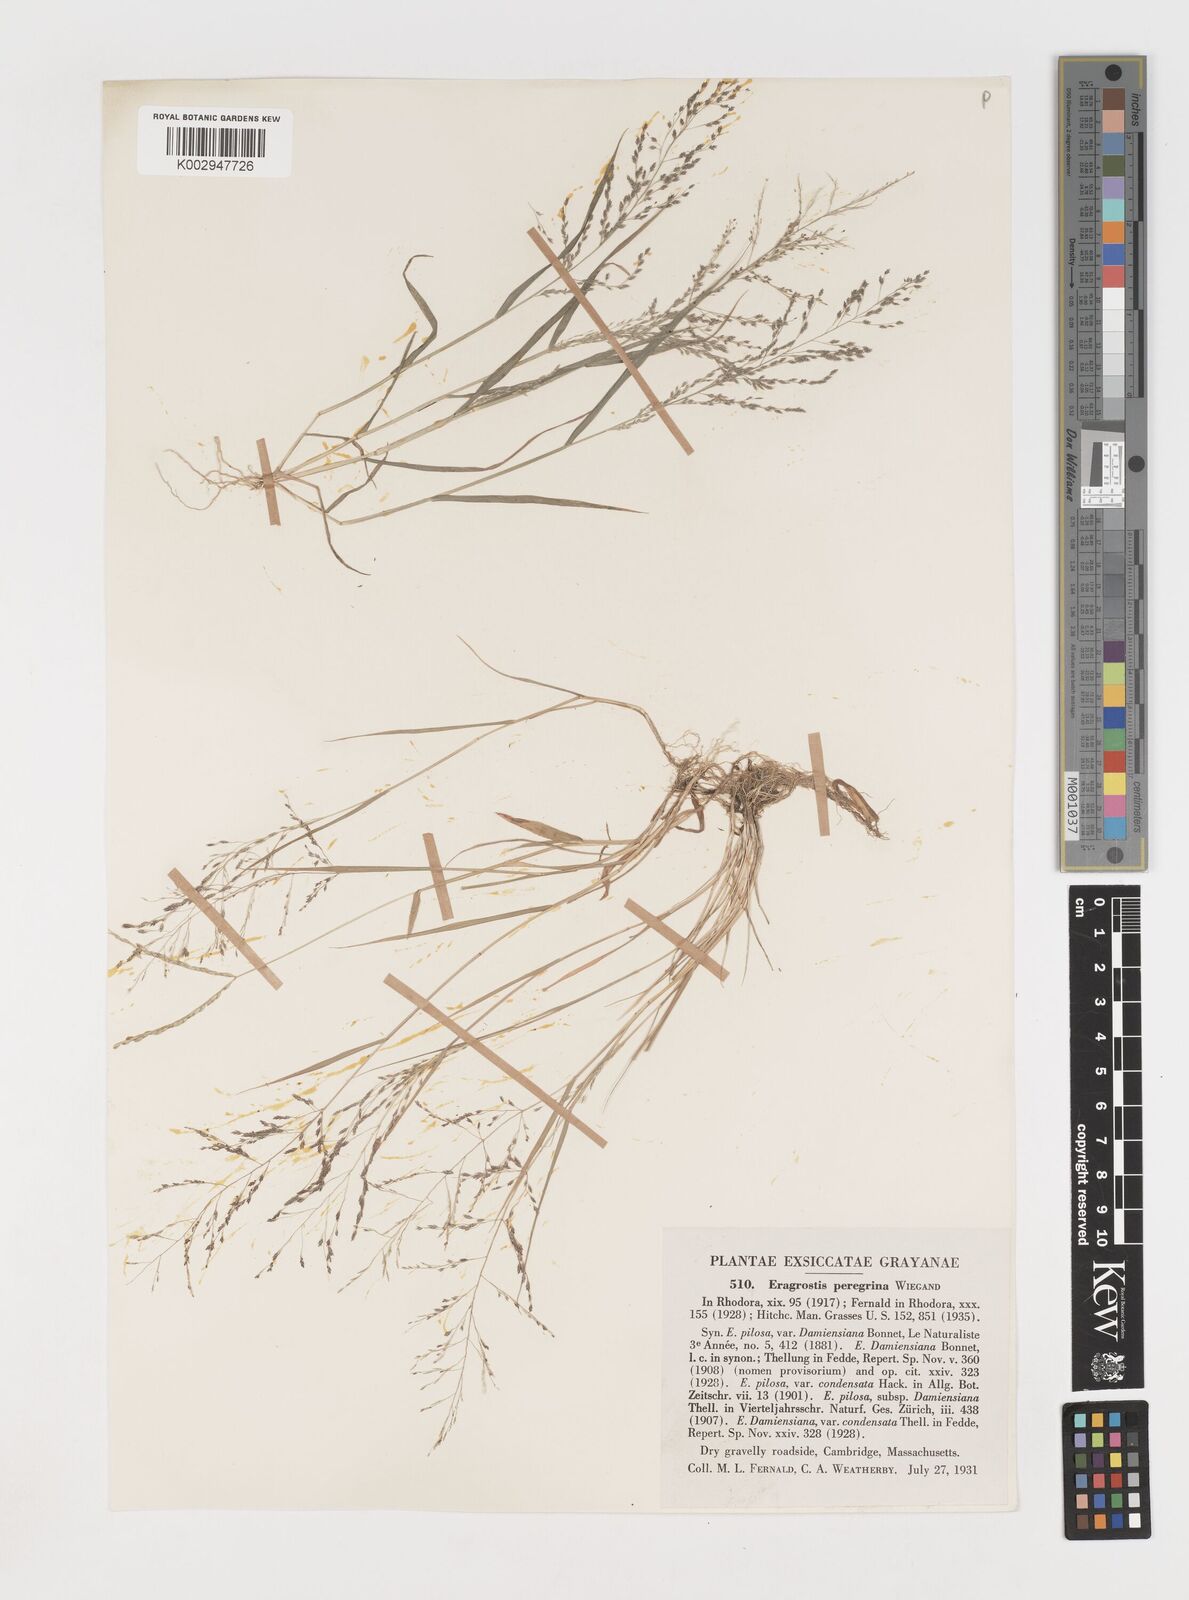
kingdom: Plantae
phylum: Tracheophyta
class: Liliopsida
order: Poales
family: Poaceae
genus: Eragrostis
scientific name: Eragrostis pilosa
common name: Indian lovegrass
